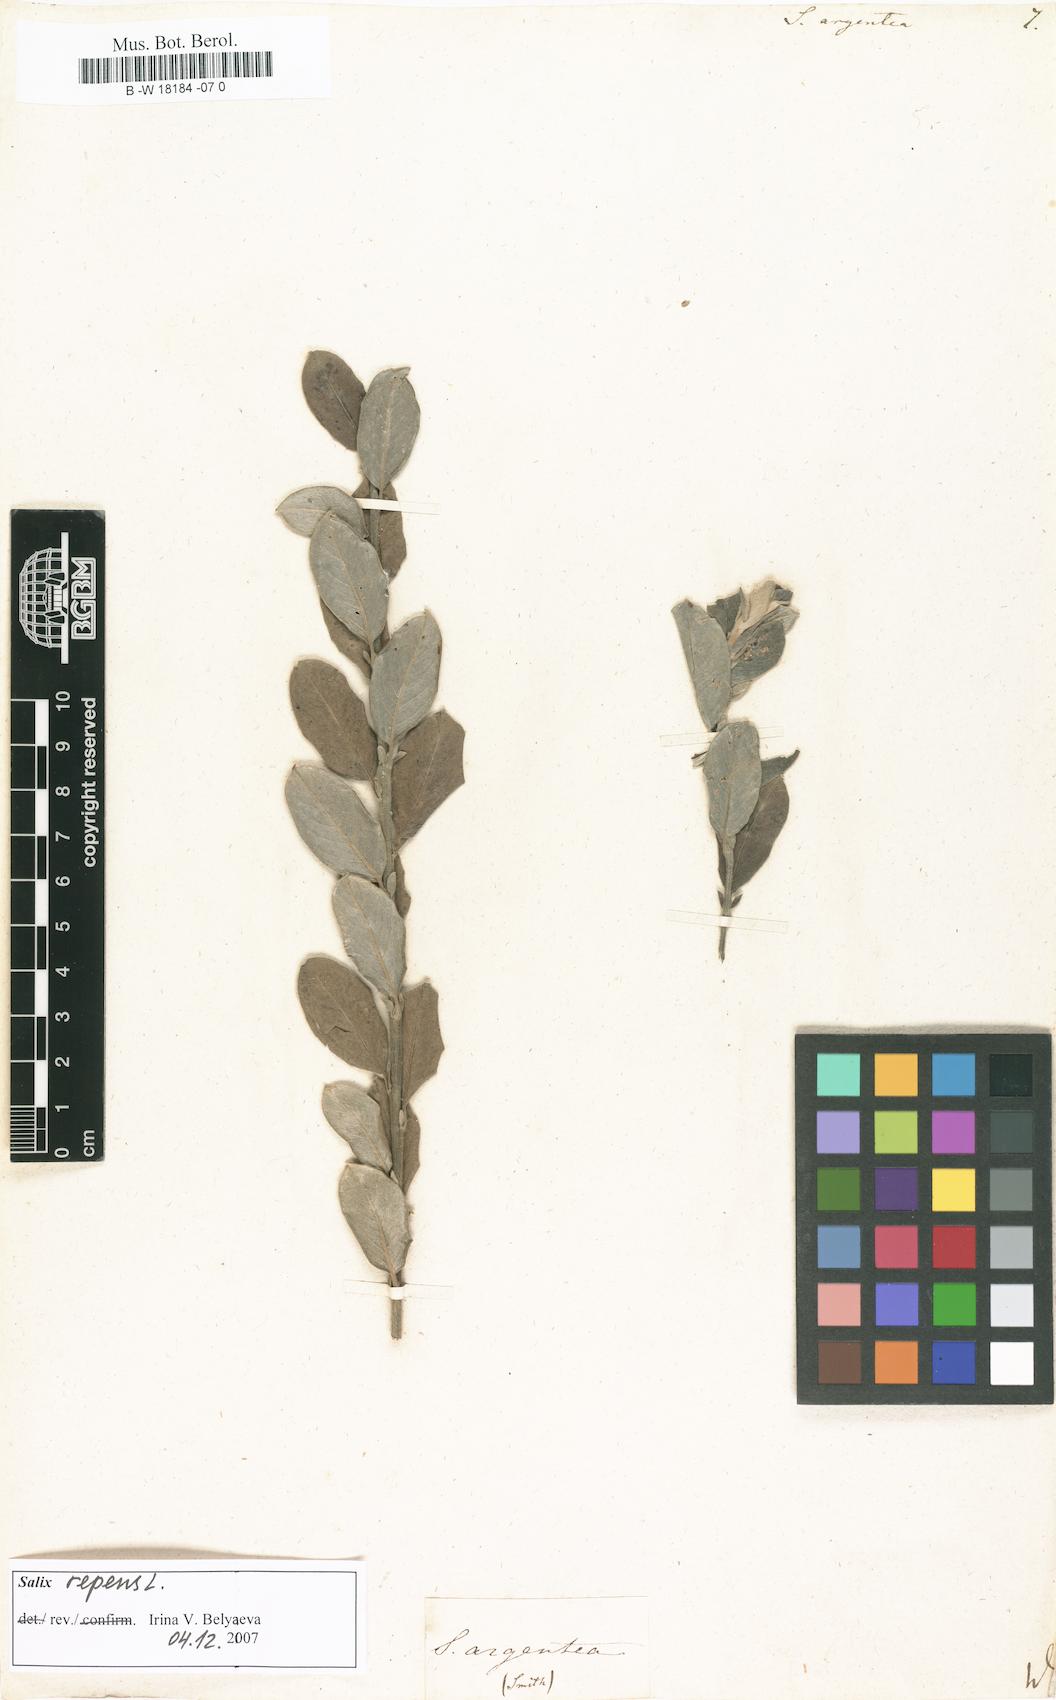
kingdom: Plantae
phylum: Tracheophyta
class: Magnoliopsida
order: Malpighiales
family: Salicaceae
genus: Salix
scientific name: Salix repens
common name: Creeping willow
